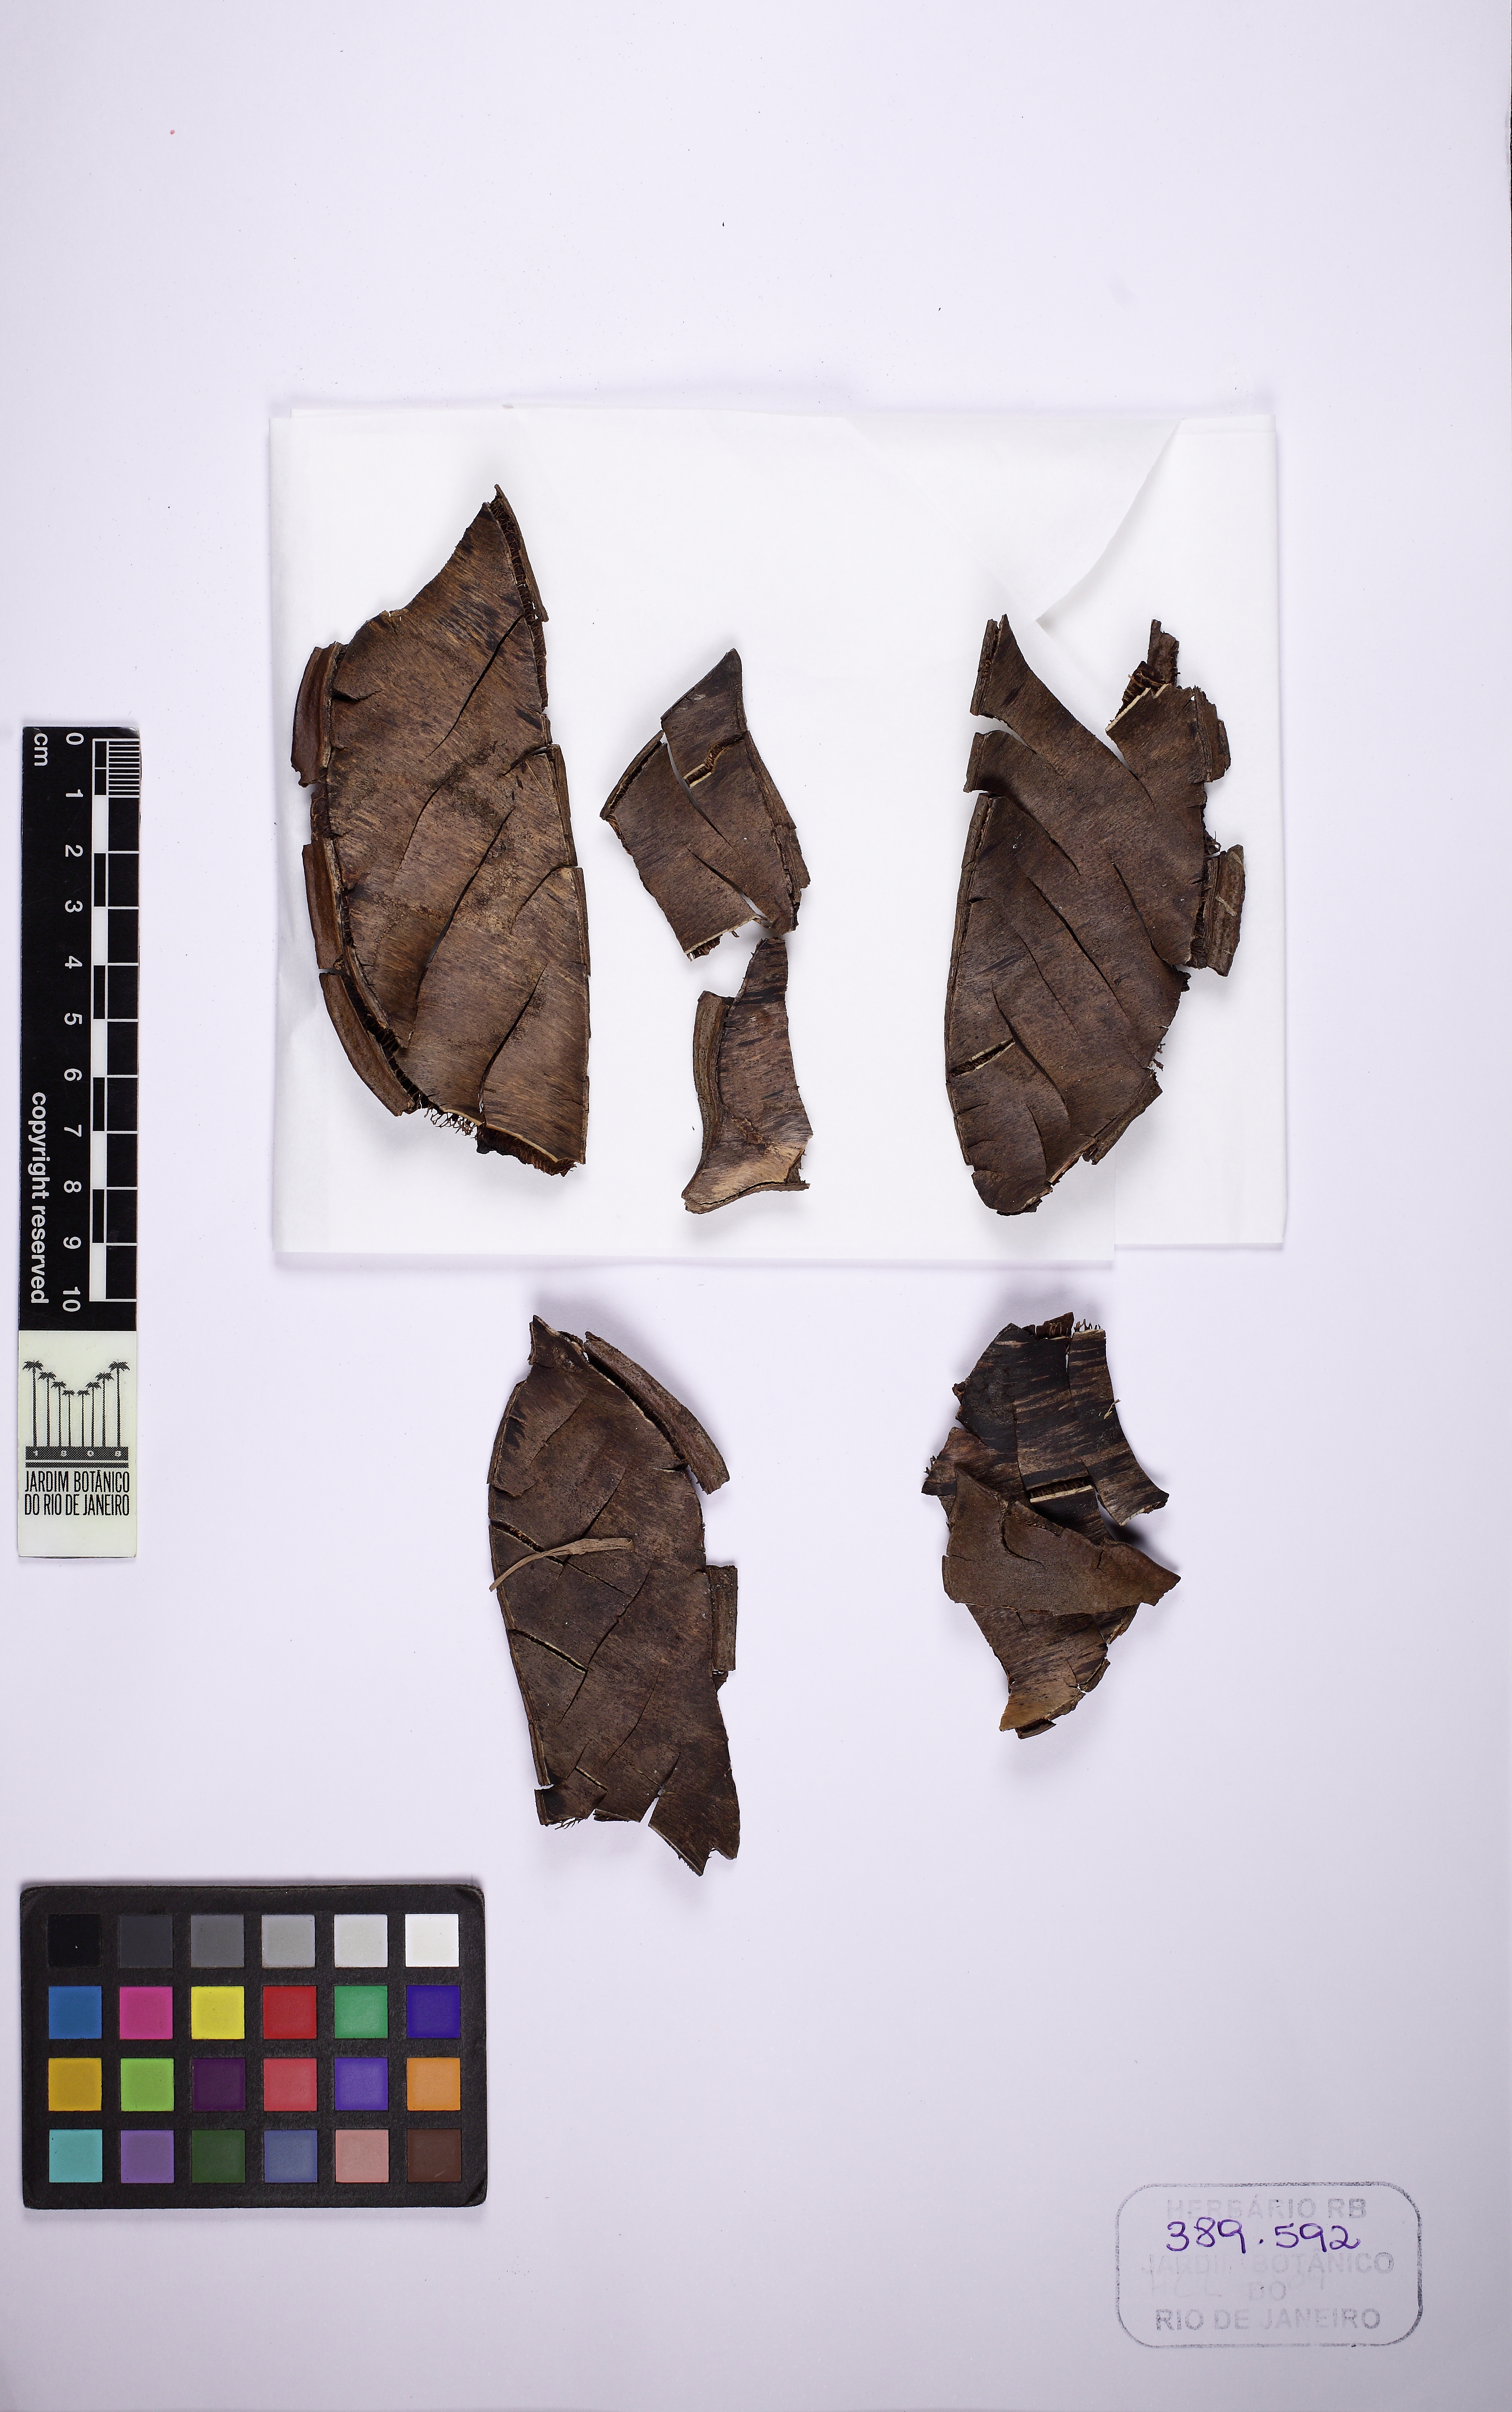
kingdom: Plantae
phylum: Tracheophyta
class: Magnoliopsida
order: Fabales
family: Fabaceae
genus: Poecilanthe
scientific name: Poecilanthe falcata
